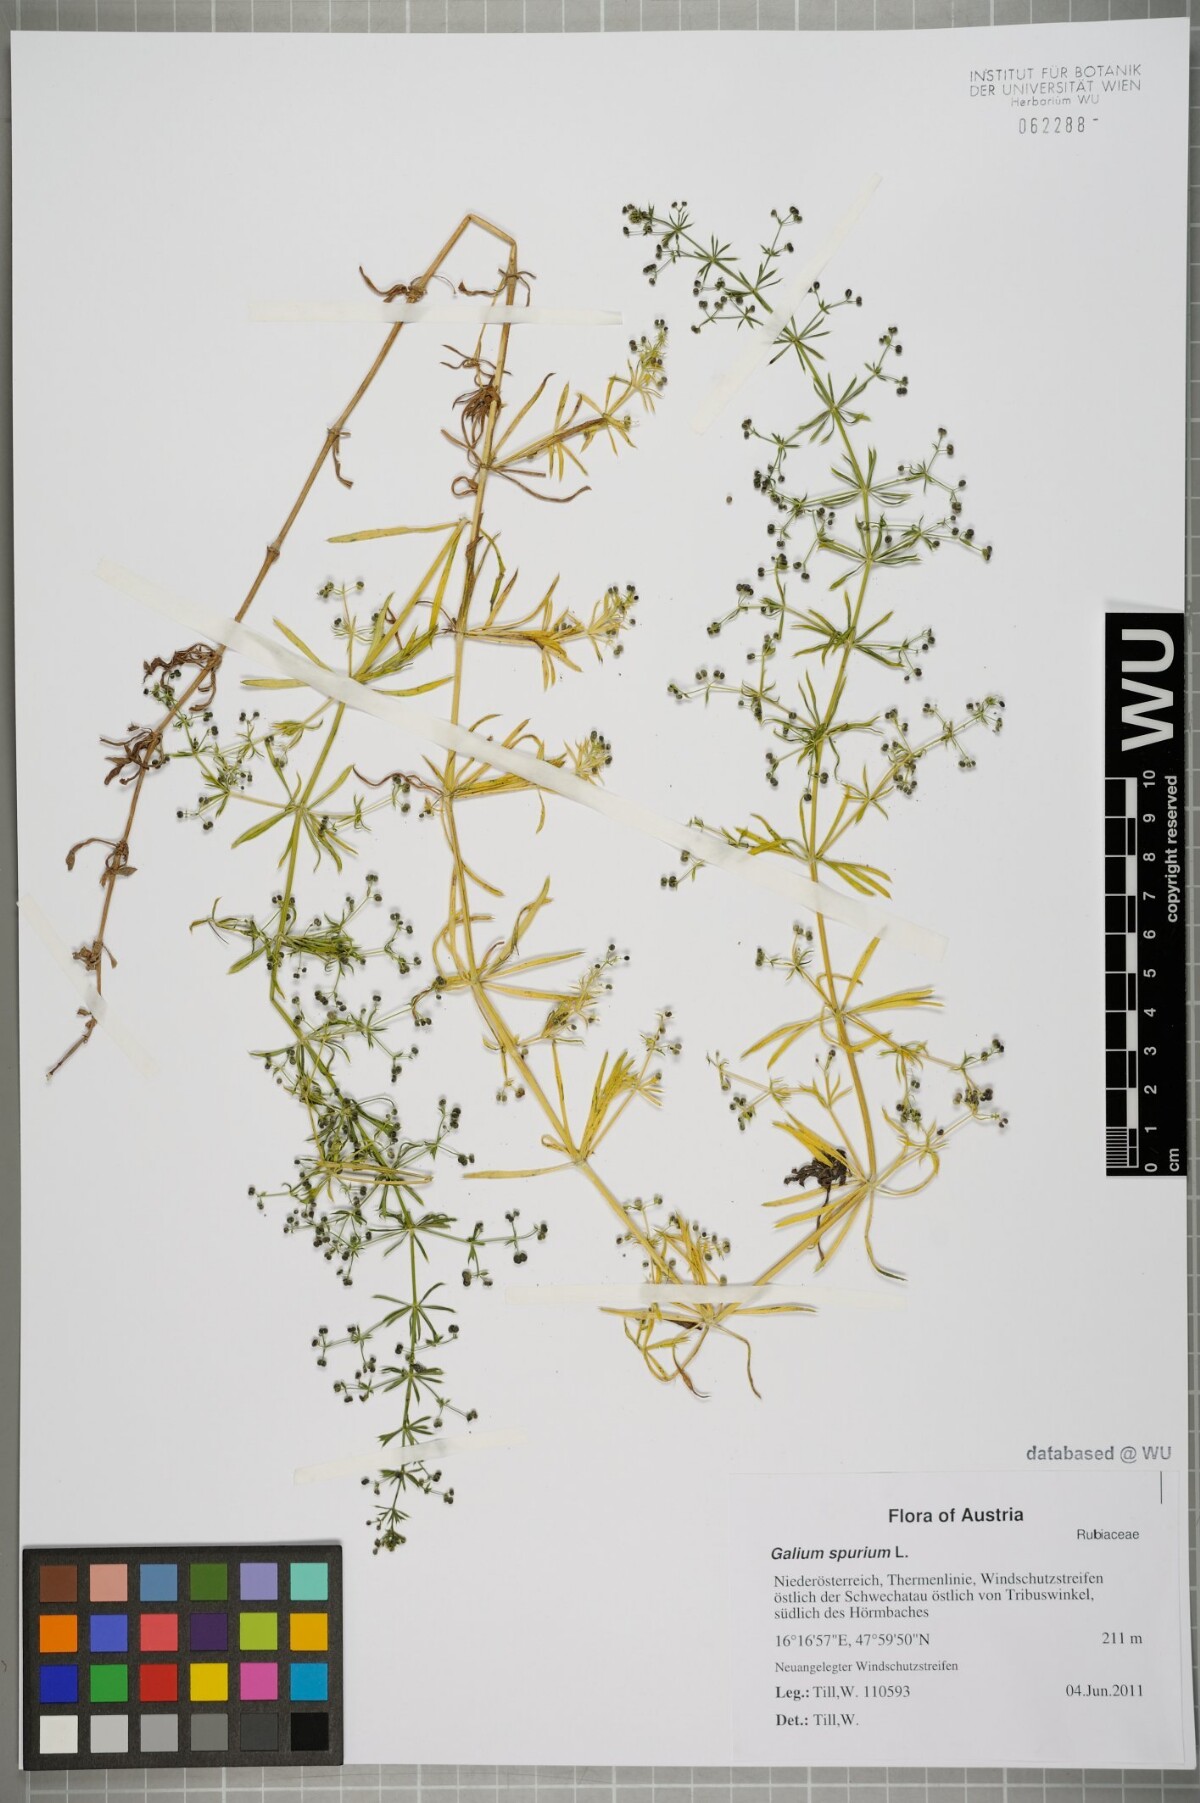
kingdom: Plantae
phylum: Tracheophyta
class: Magnoliopsida
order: Gentianales
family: Rubiaceae
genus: Galium
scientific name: Galium spurium
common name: False cleavers
